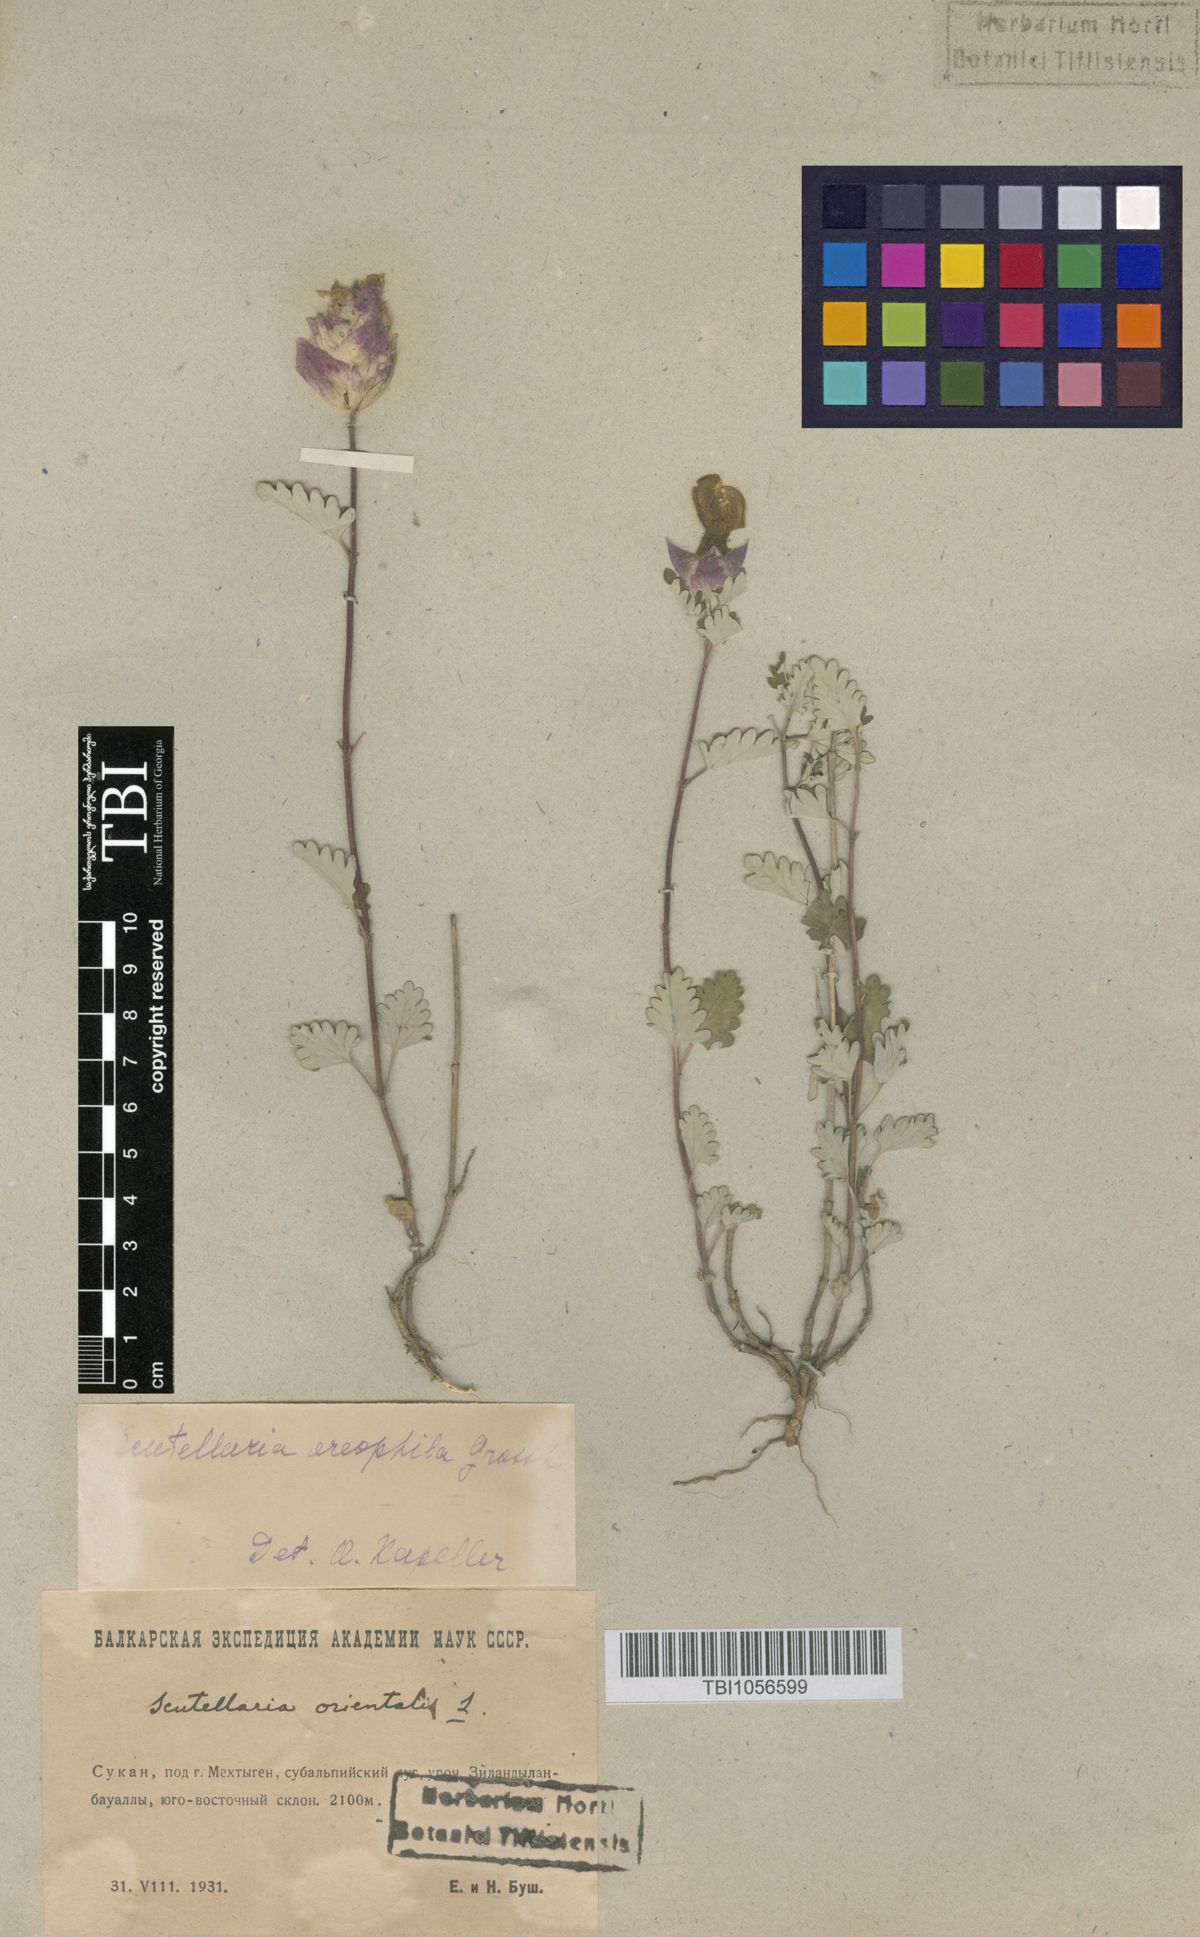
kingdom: Plantae
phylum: Tracheophyta
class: Magnoliopsida
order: Lamiales
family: Lamiaceae
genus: Scutellaria
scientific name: Scutellaria oreophila
